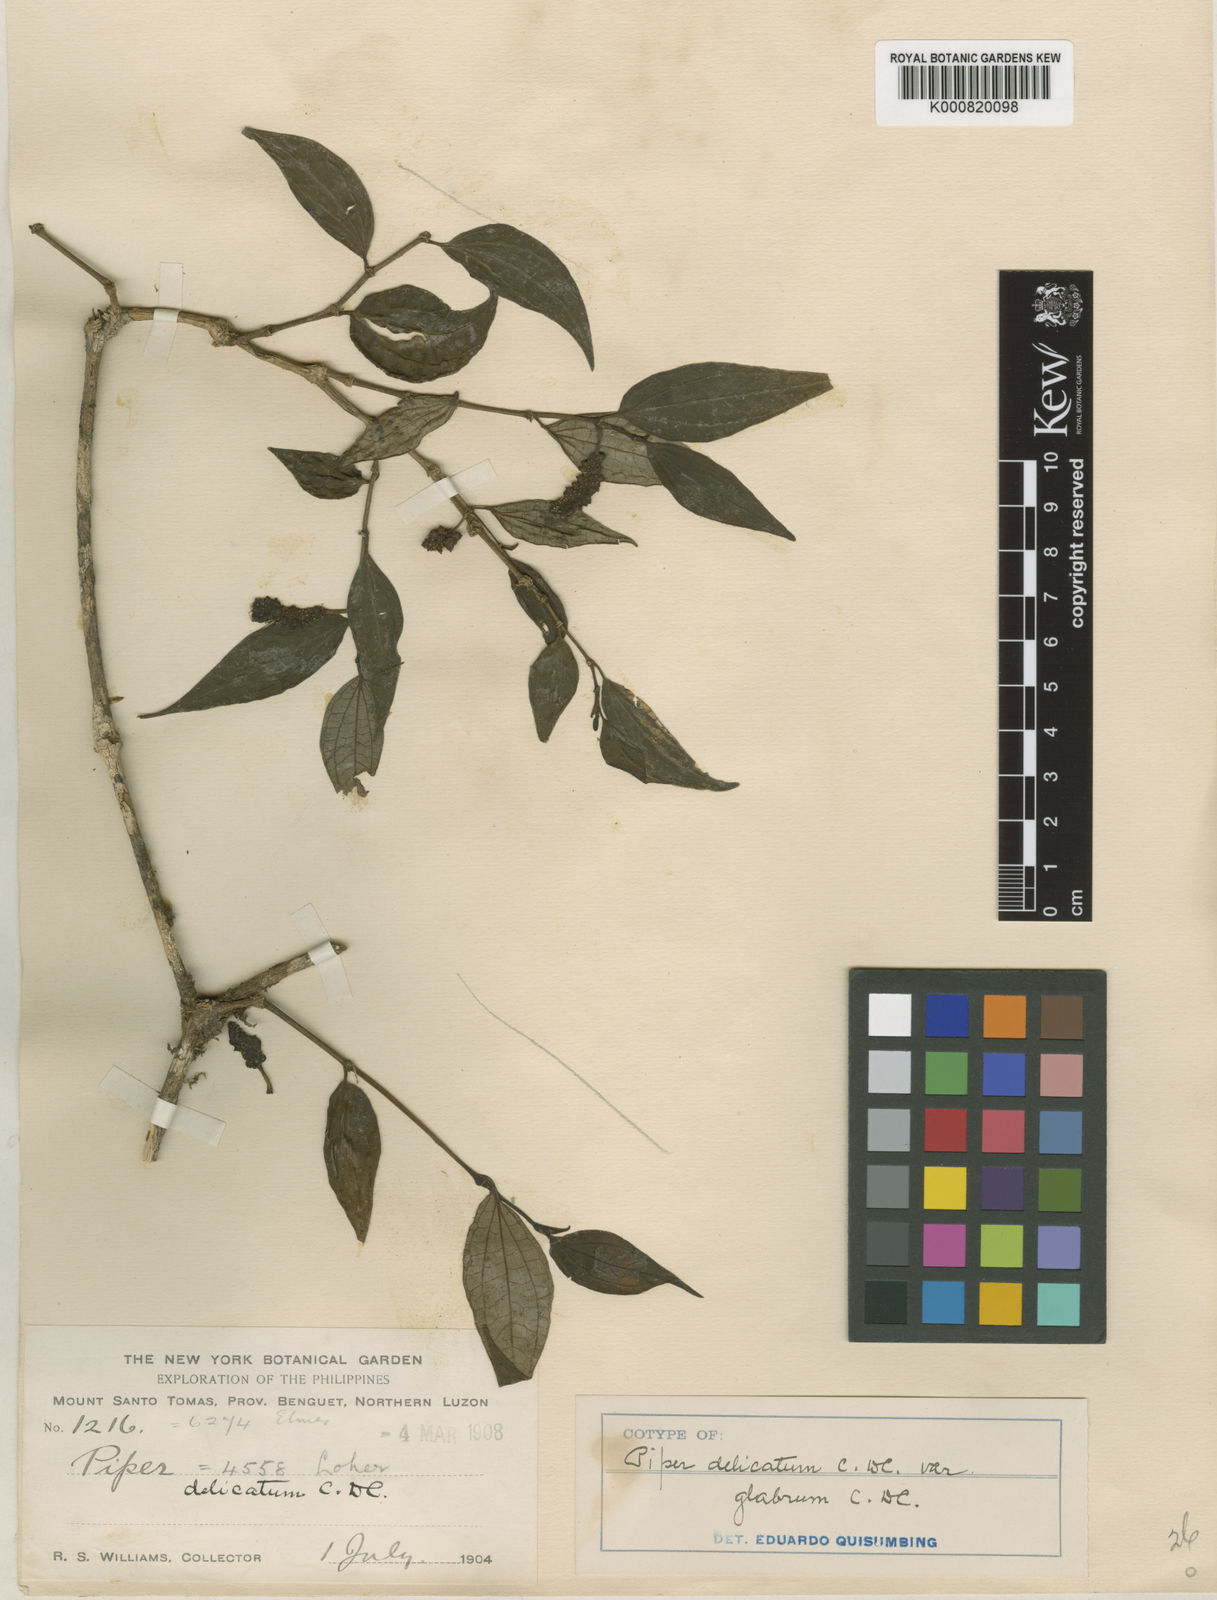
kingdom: Plantae
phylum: Tracheophyta
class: Magnoliopsida
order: Piperales
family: Piperaceae
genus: Piper
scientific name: Piper delicatum
